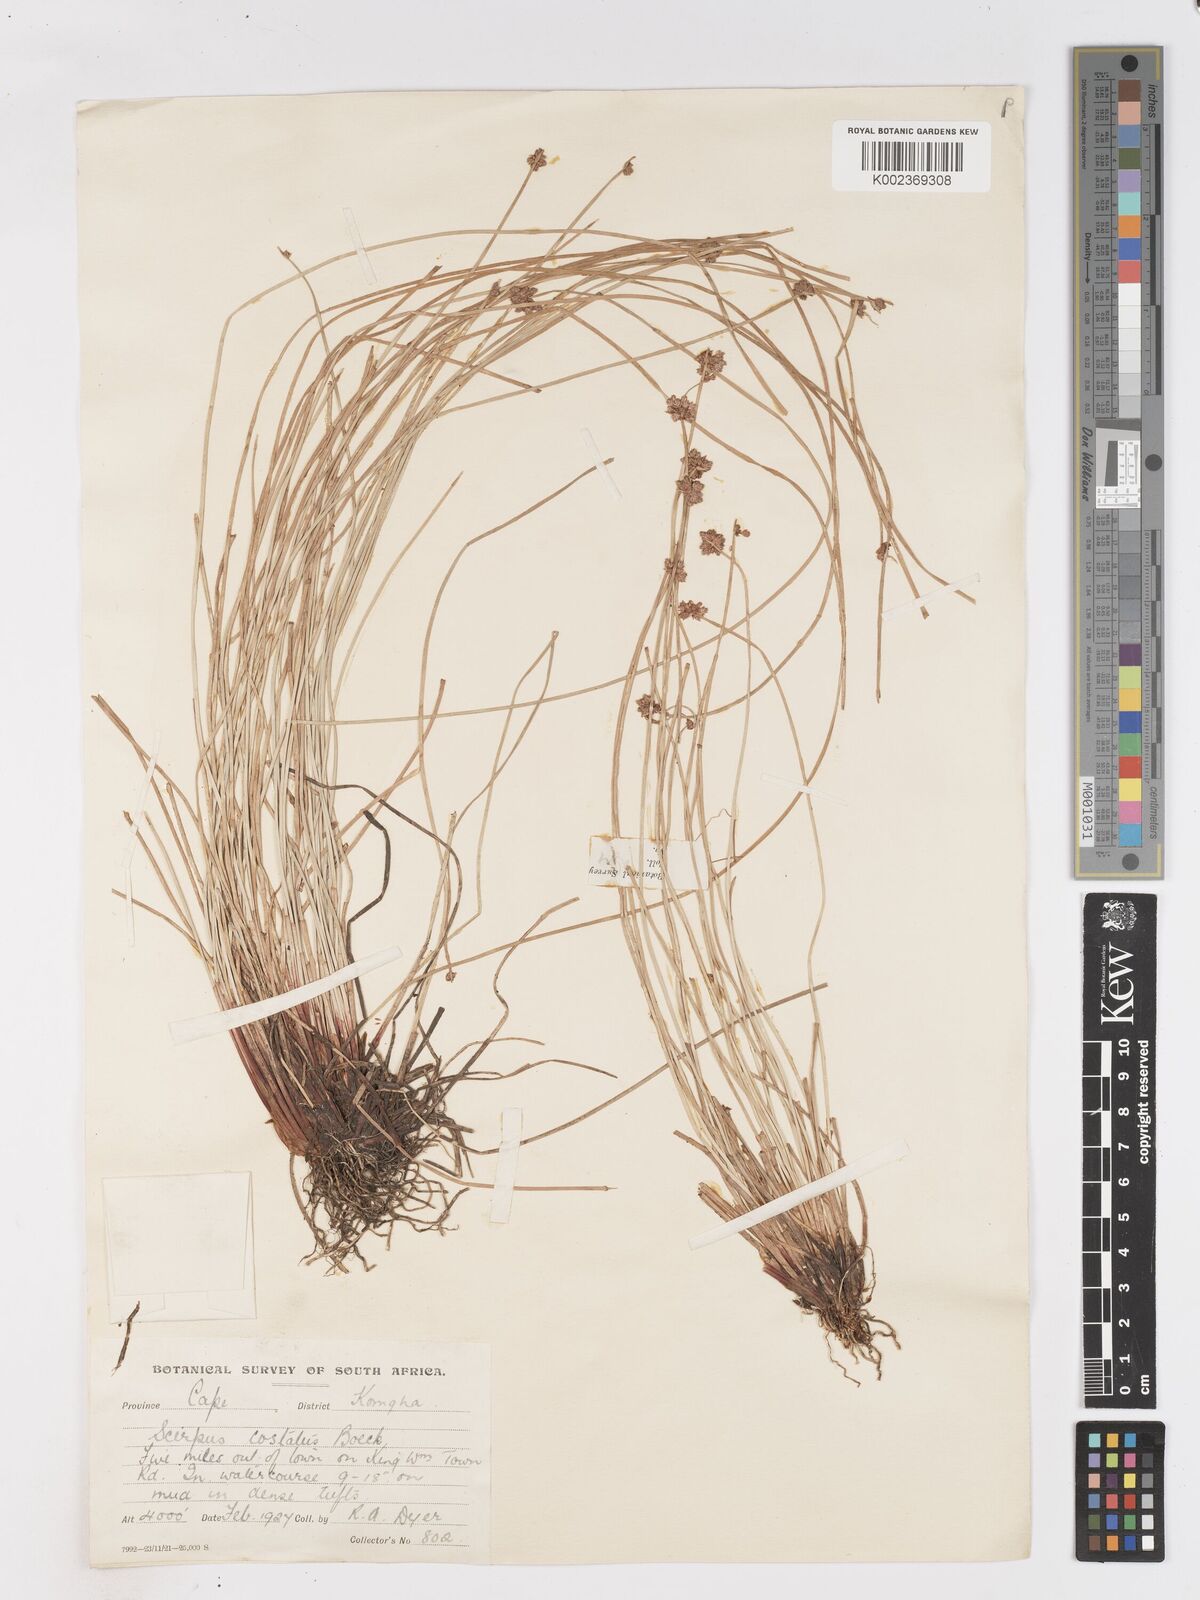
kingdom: Plantae
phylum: Tracheophyta
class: Liliopsida
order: Poales
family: Cyperaceae
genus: Isolepis
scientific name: Isolepis costata
